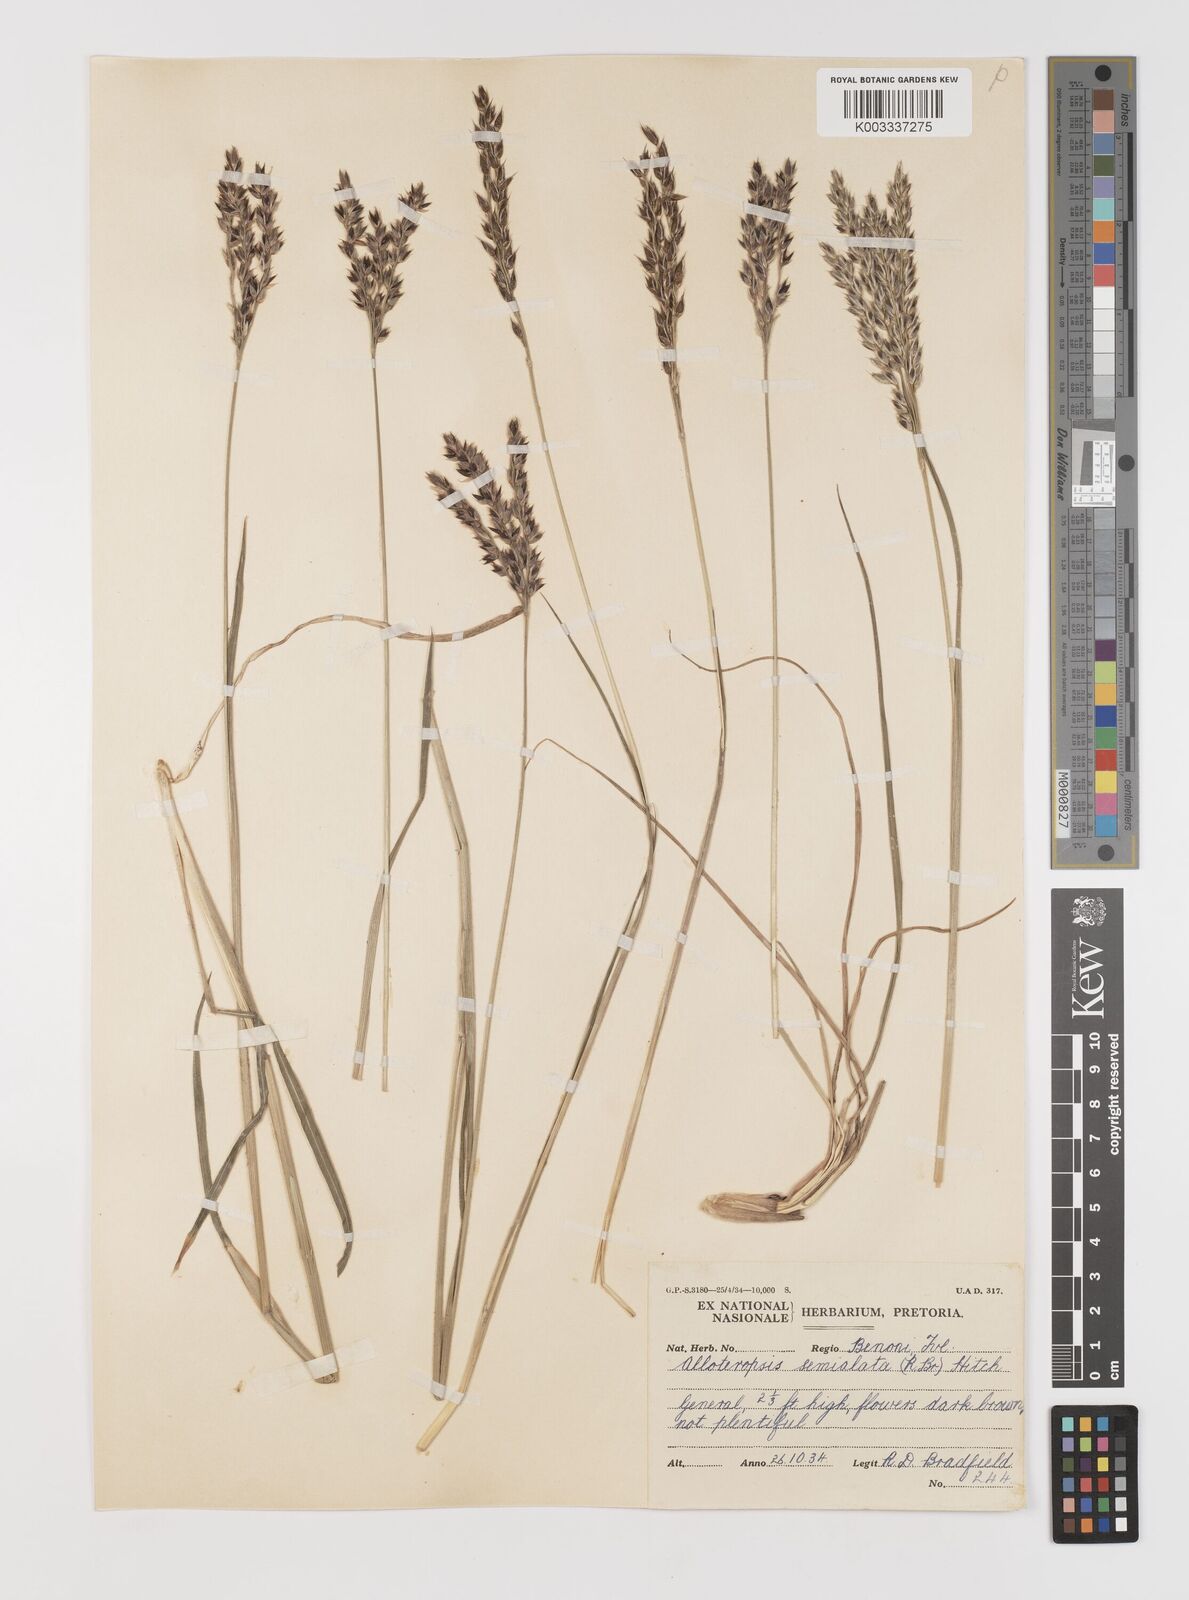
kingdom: Plantae
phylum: Tracheophyta
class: Liliopsida
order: Poales
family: Poaceae
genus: Alloteropsis
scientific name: Alloteropsis semialata
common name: Cockatoo grass
